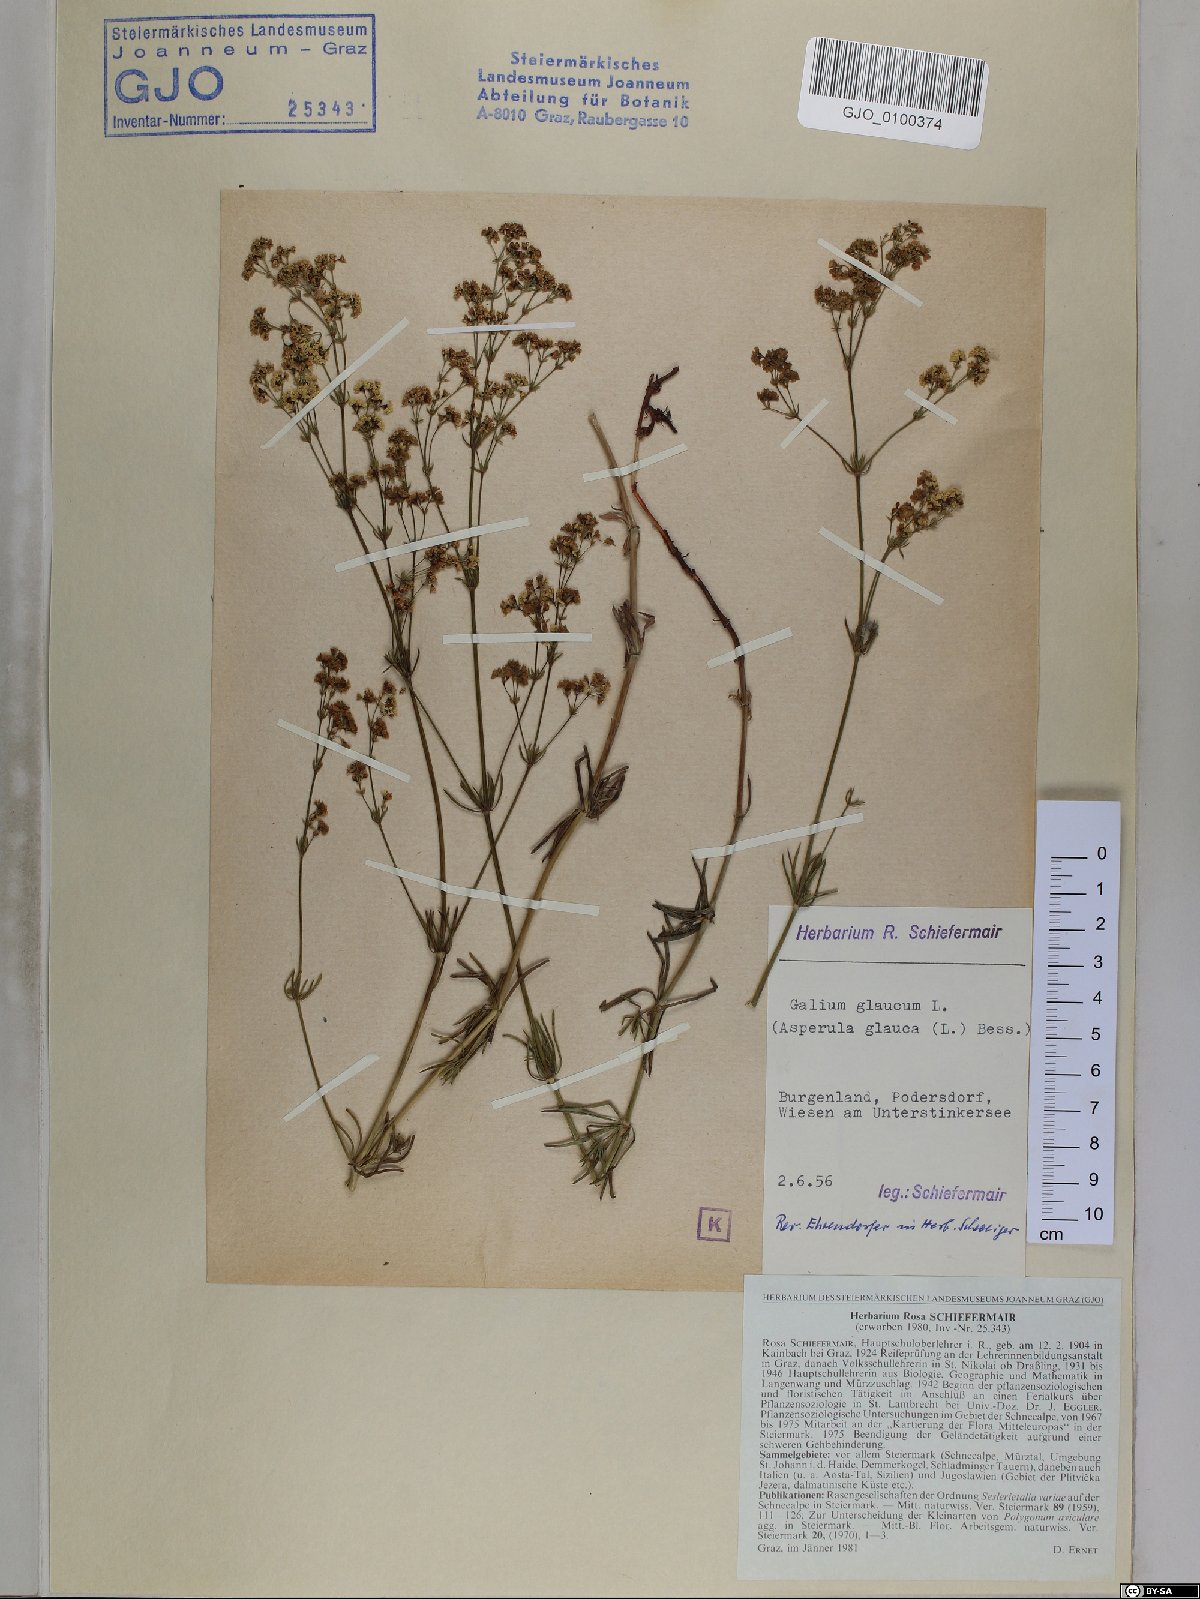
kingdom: Plantae
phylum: Tracheophyta
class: Magnoliopsida
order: Gentianales
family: Rubiaceae
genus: Galium
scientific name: Galium glaucum
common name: Waxy bedstraw
